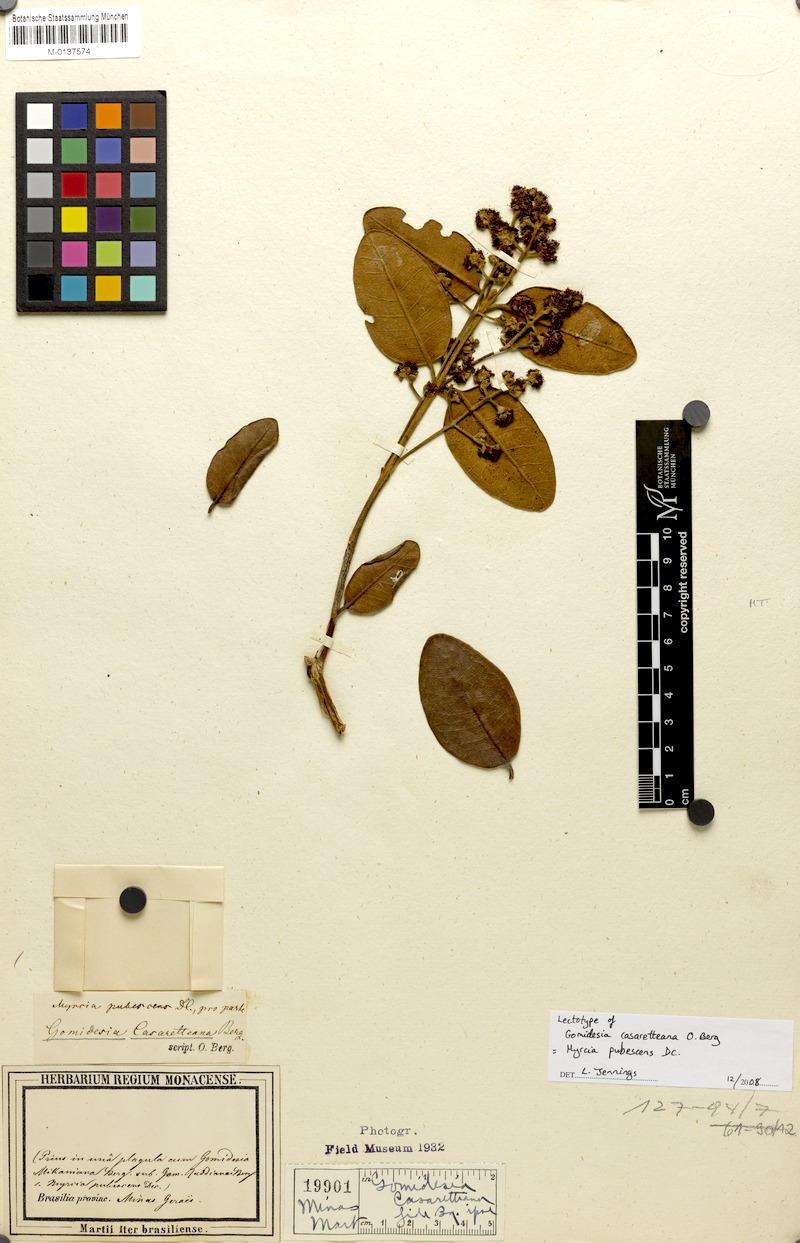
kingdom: Plantae
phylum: Tracheophyta
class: Magnoliopsida
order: Myrtales
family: Myrtaceae
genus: Myrcia
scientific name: Myrcia pubescens
